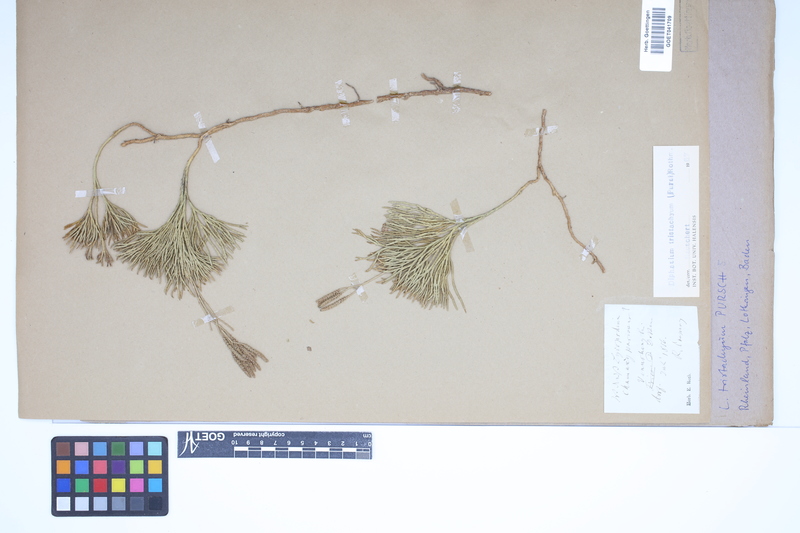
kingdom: Plantae
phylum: Tracheophyta
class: Lycopodiopsida
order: Lycopodiales
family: Lycopodiaceae
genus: Diphasiastrum
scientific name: Diphasiastrum tristachyum
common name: Blue ground-cedar
